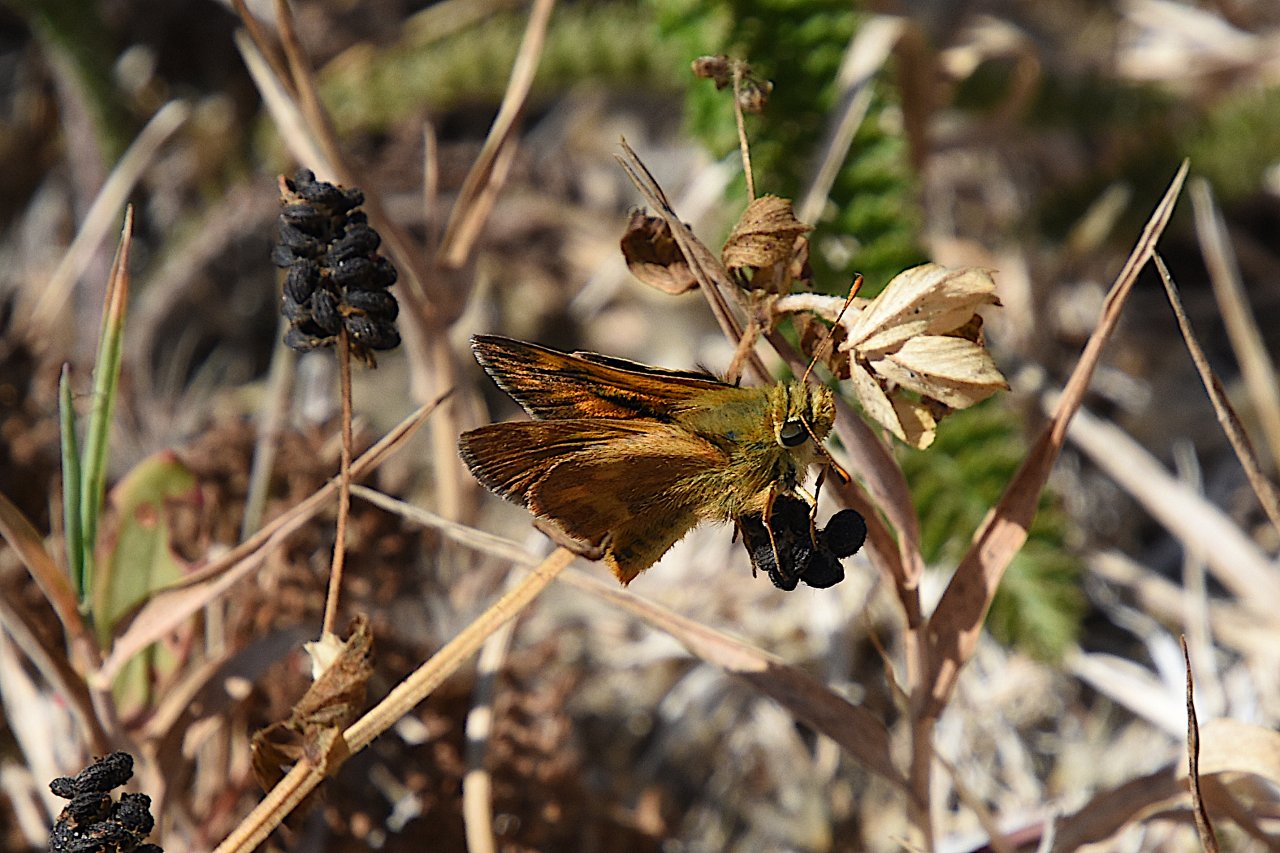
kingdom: Animalia
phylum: Arthropoda
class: Insecta
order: Lepidoptera
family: Hesperiidae
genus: Ochlodes
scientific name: Ochlodes sylvanoides
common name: Woodland Skipper
